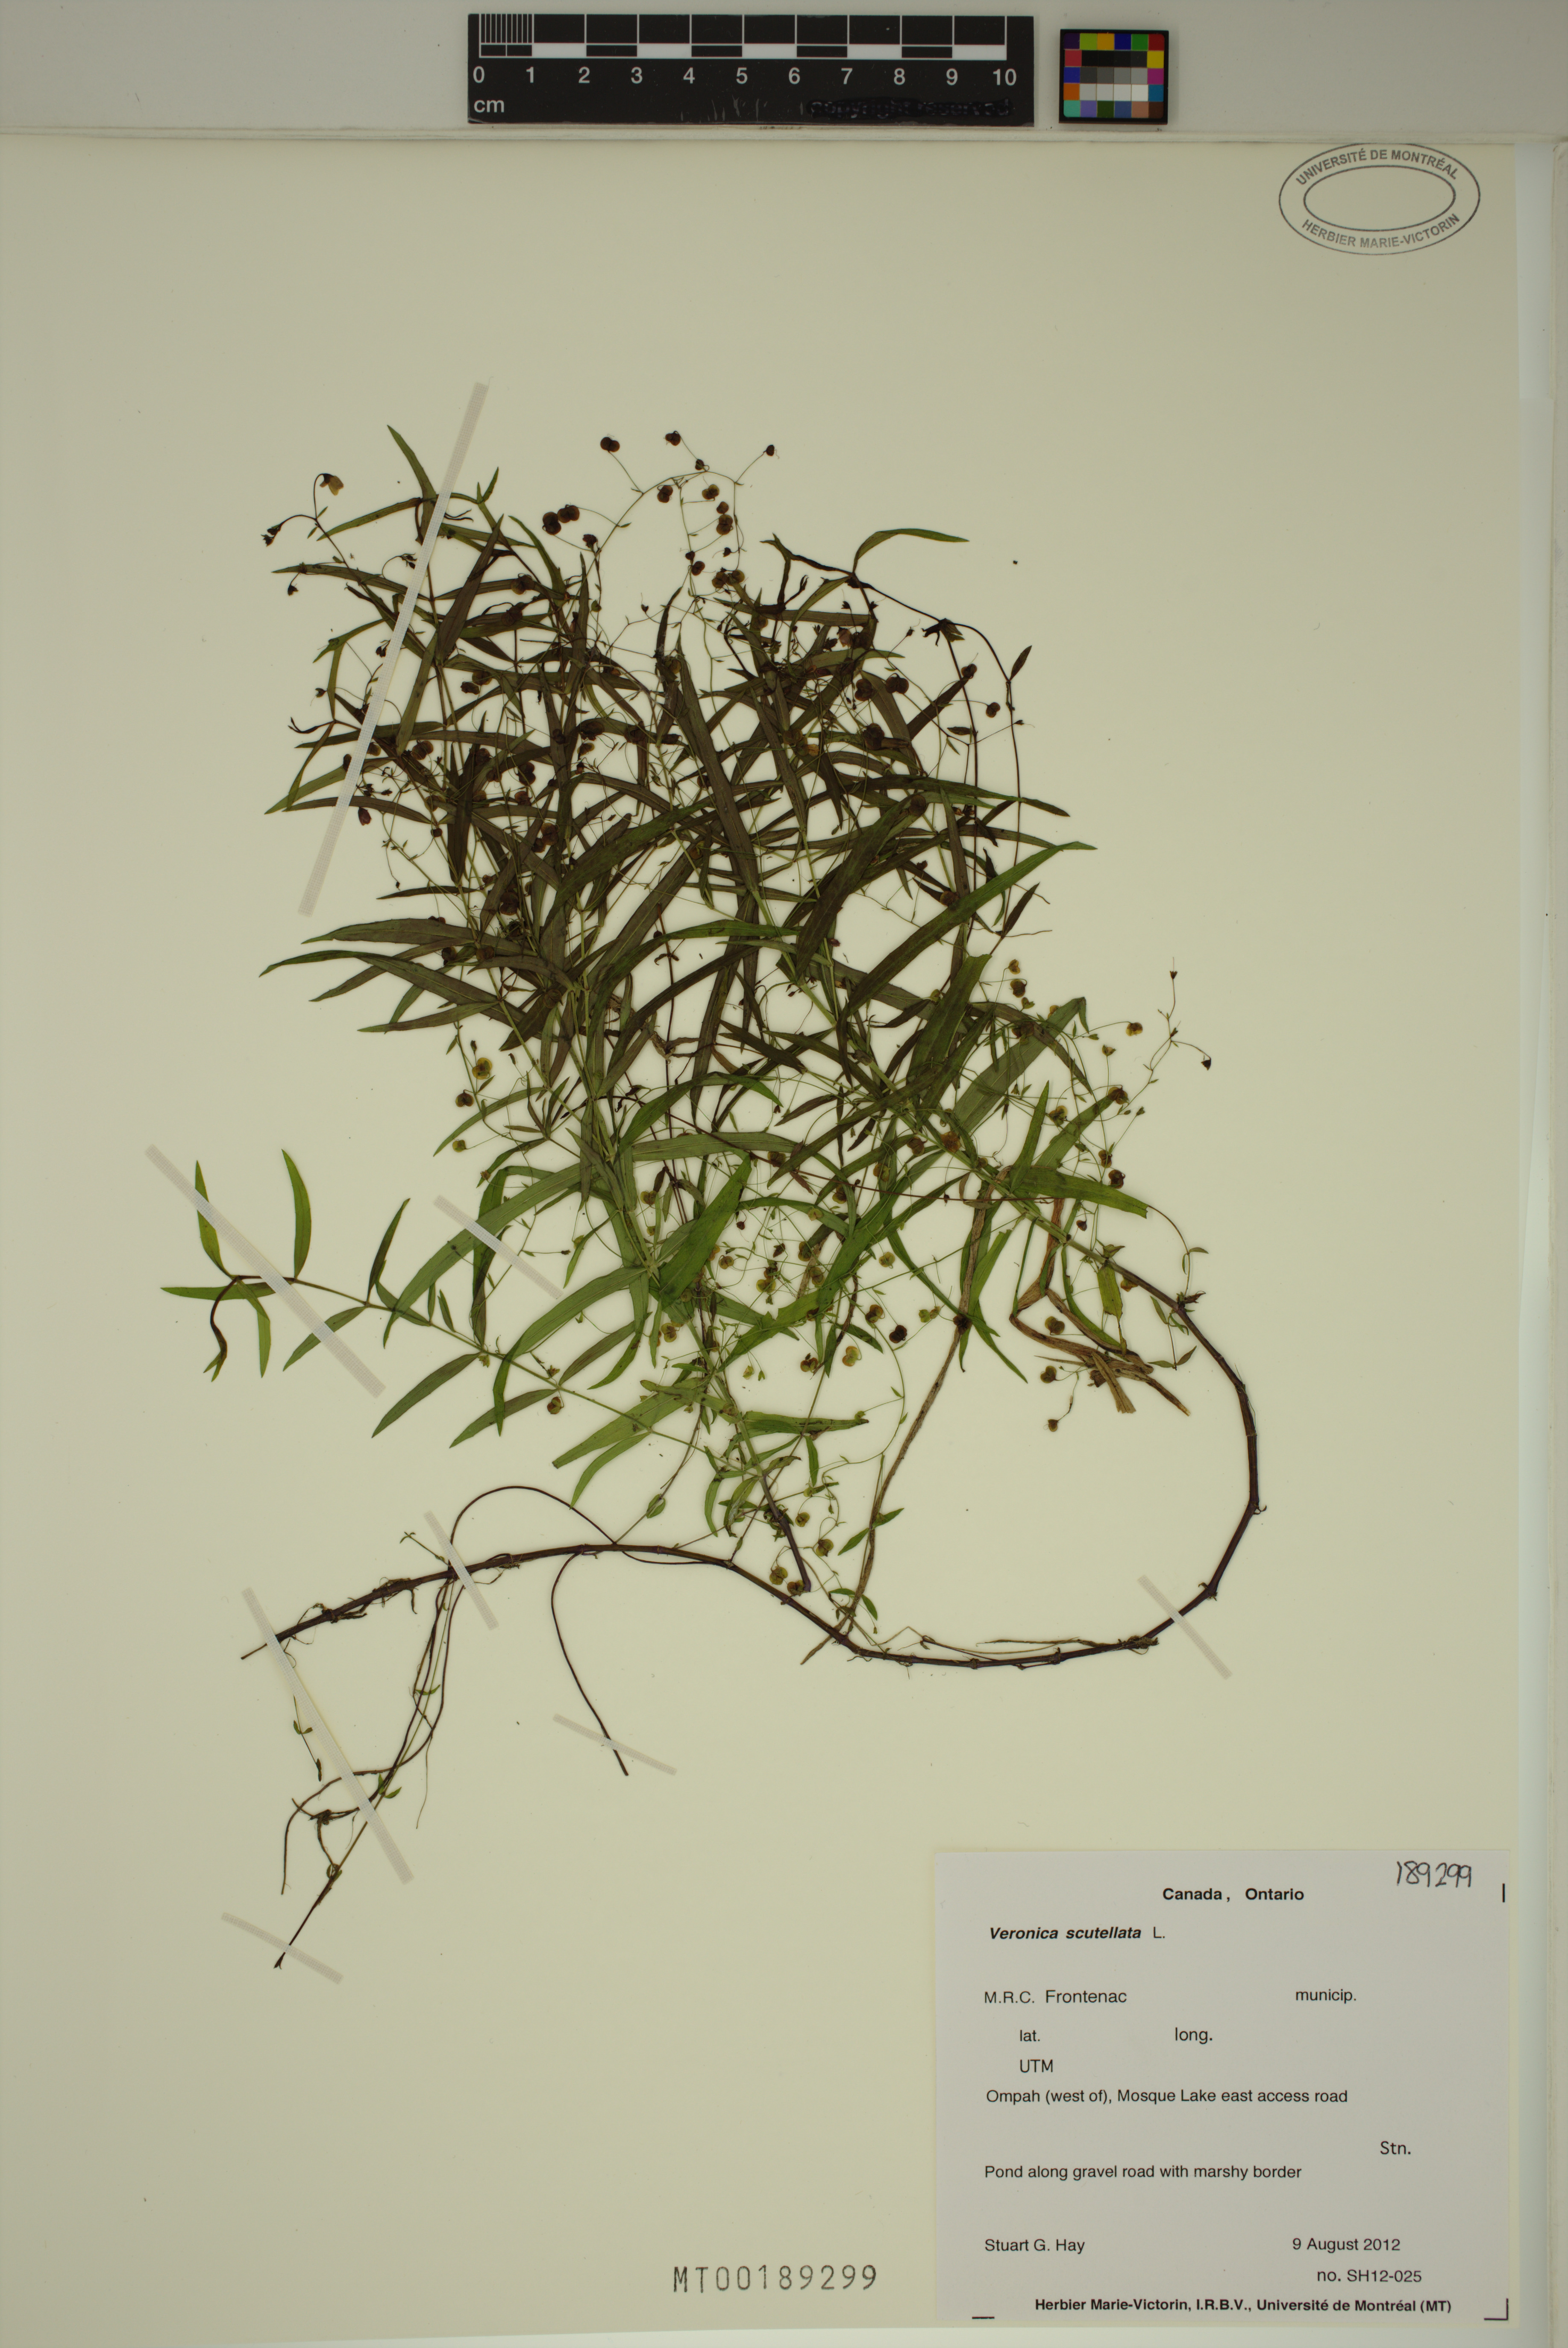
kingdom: Plantae
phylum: Tracheophyta
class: Magnoliopsida
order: Lamiales
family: Plantaginaceae
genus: Veronica
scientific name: Veronica scutellata
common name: Marsh speedwell
